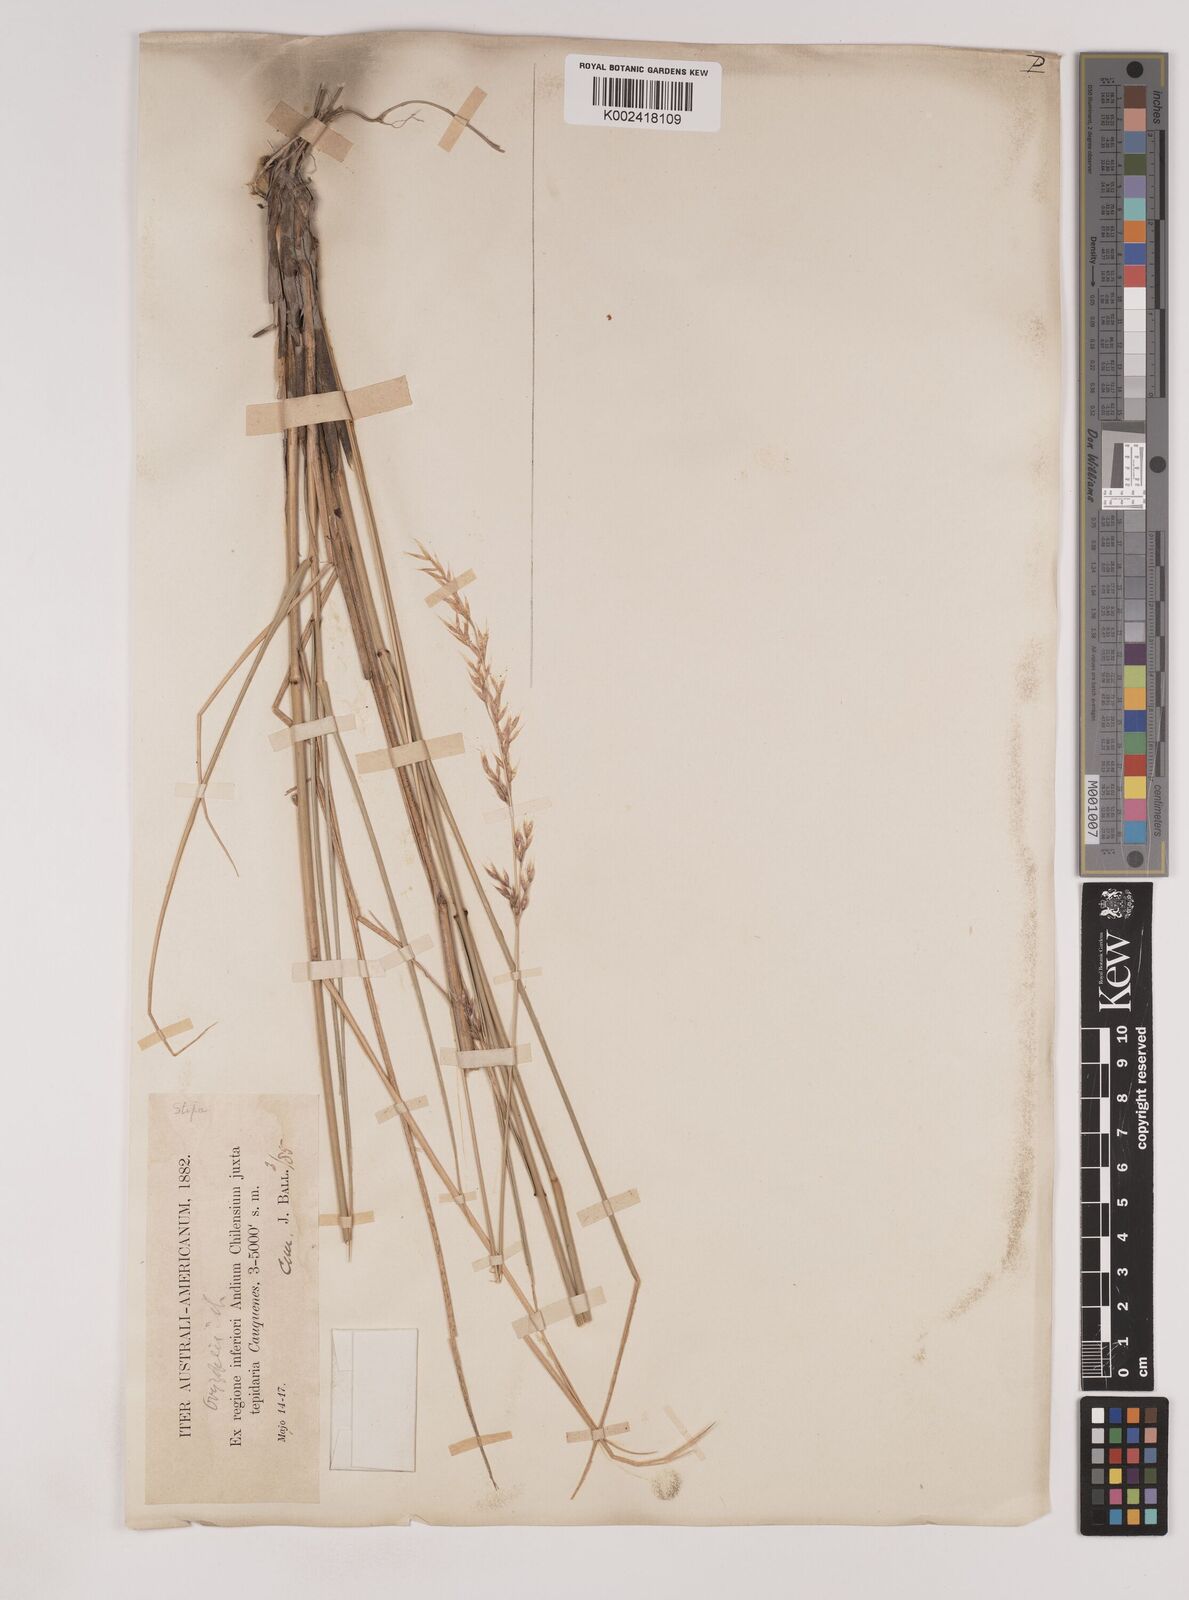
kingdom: Plantae
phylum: Tracheophyta
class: Liliopsida
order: Poales
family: Poaceae
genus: Nassella
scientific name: Nassella
